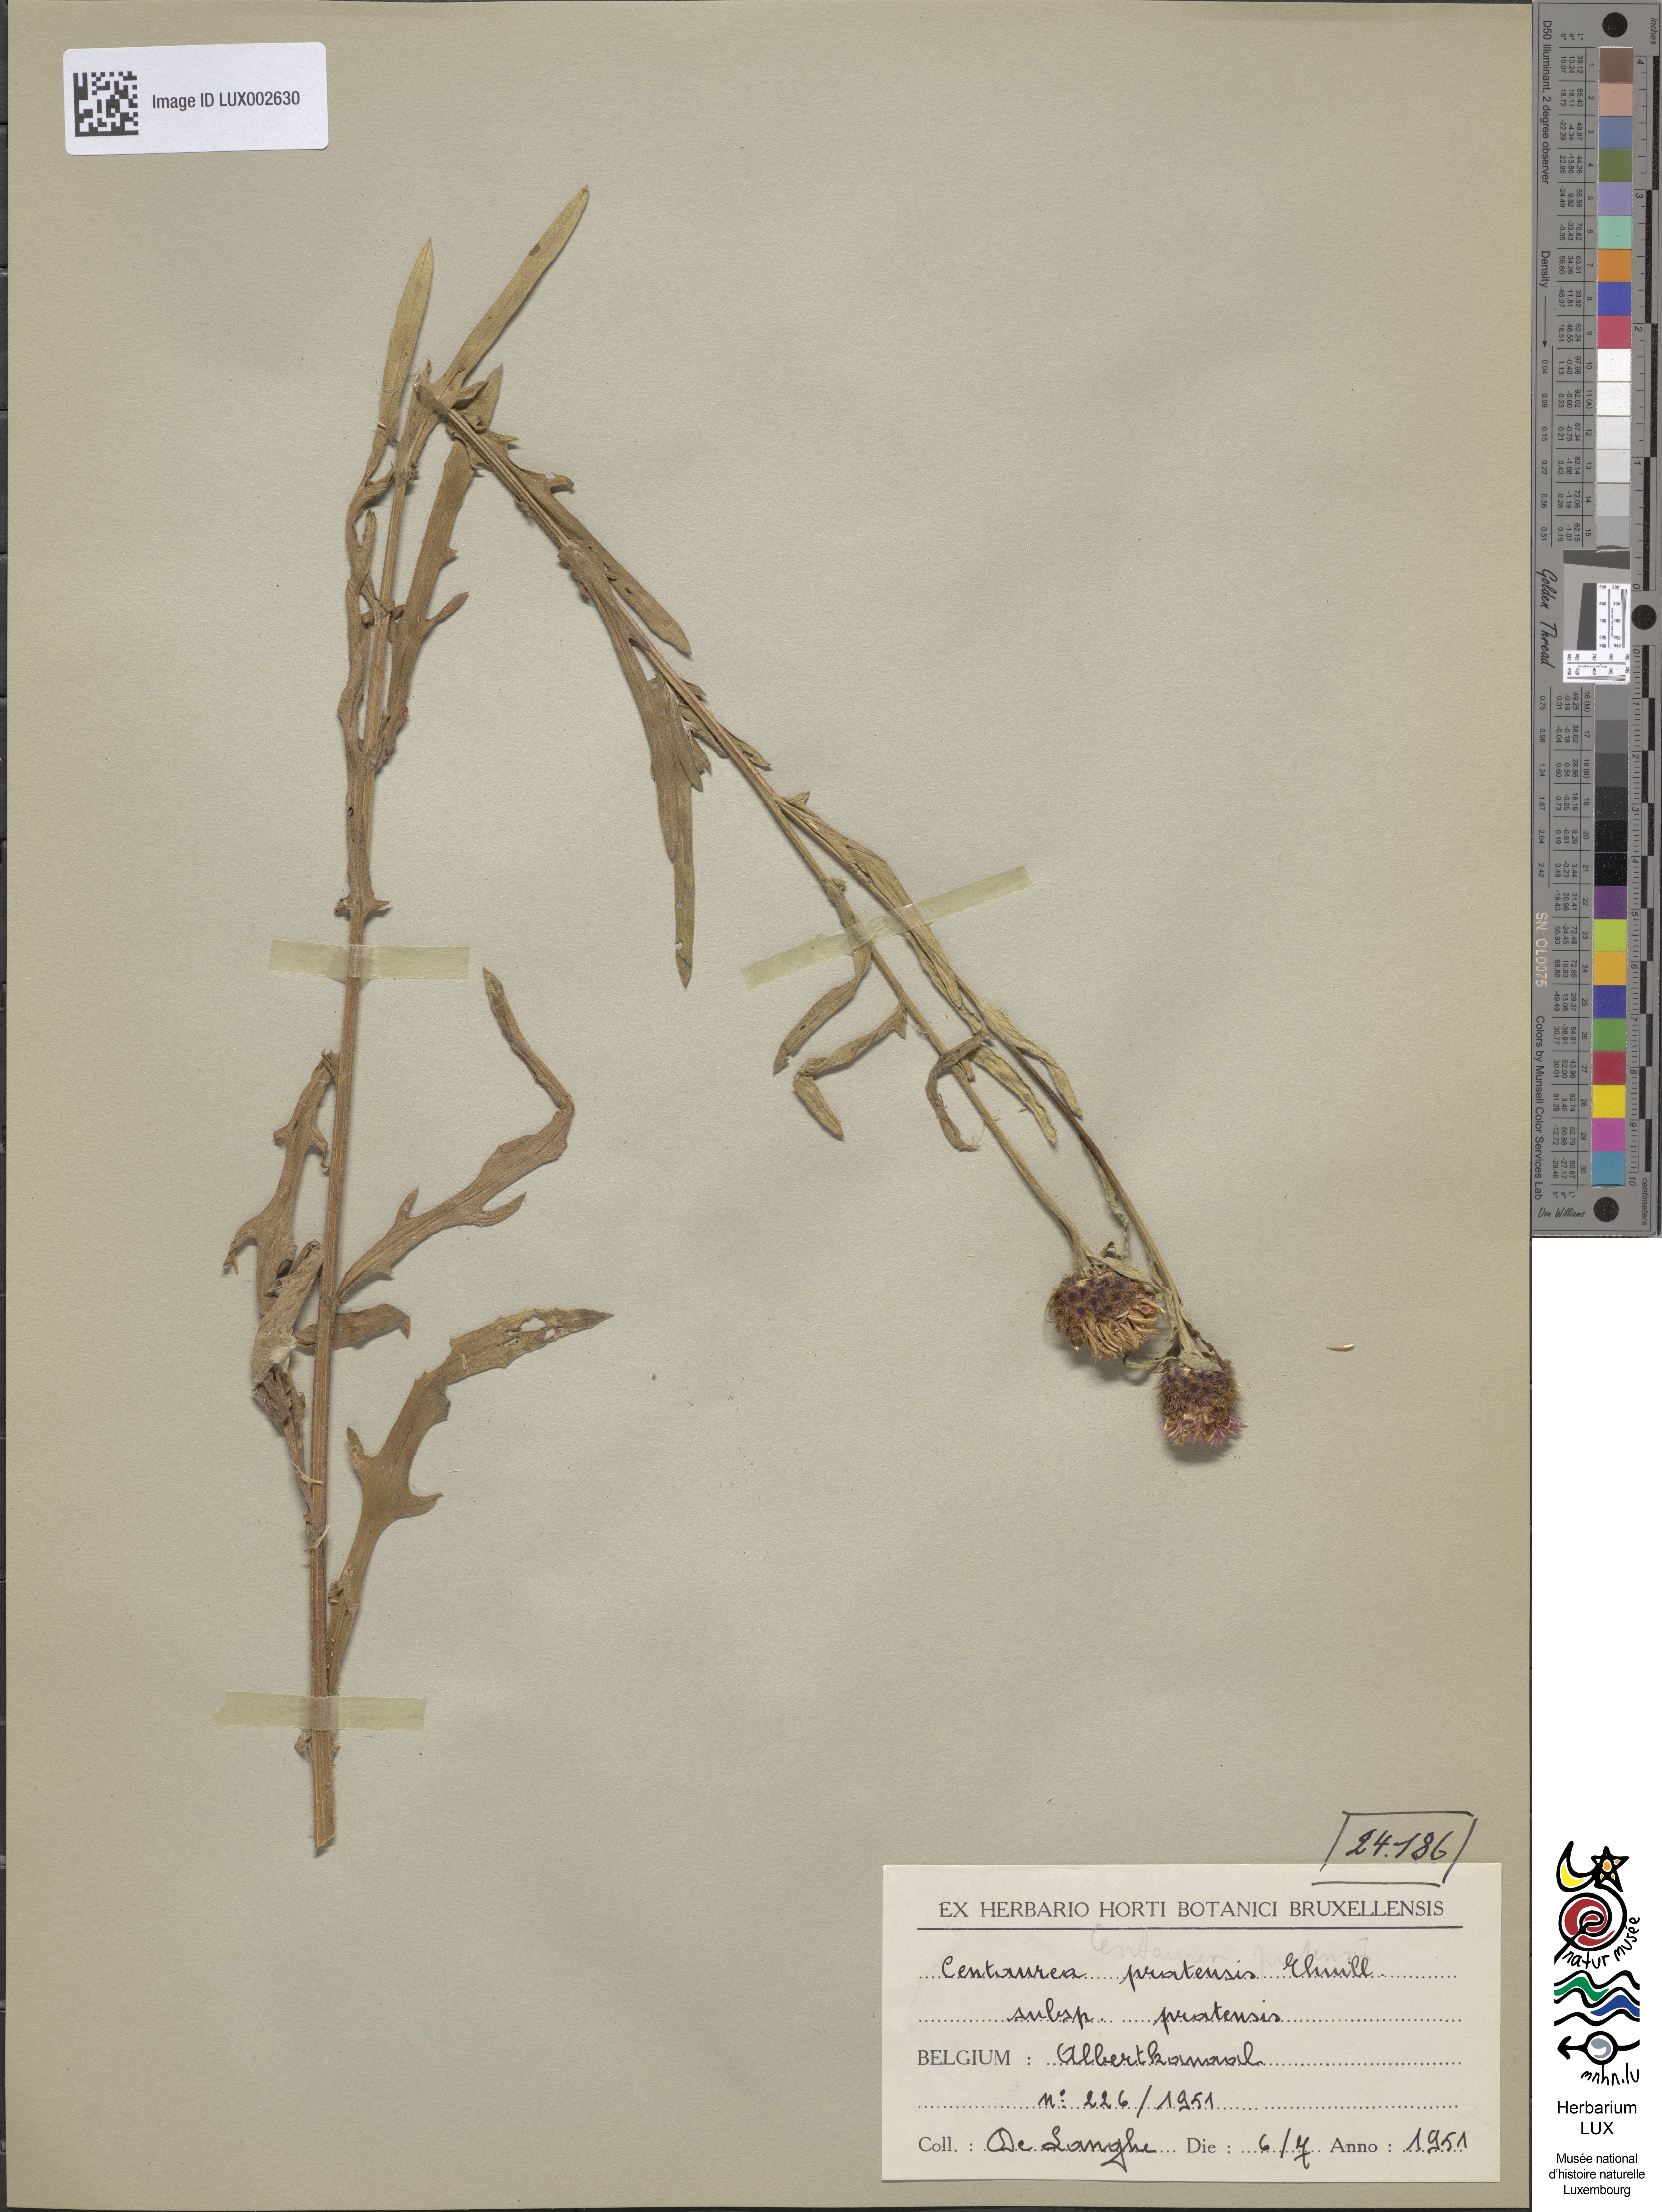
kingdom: Plantae
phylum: Tracheophyta
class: Magnoliopsida
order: Asterales
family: Asteraceae
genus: Centaurea
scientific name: Centaurea thuillieri
